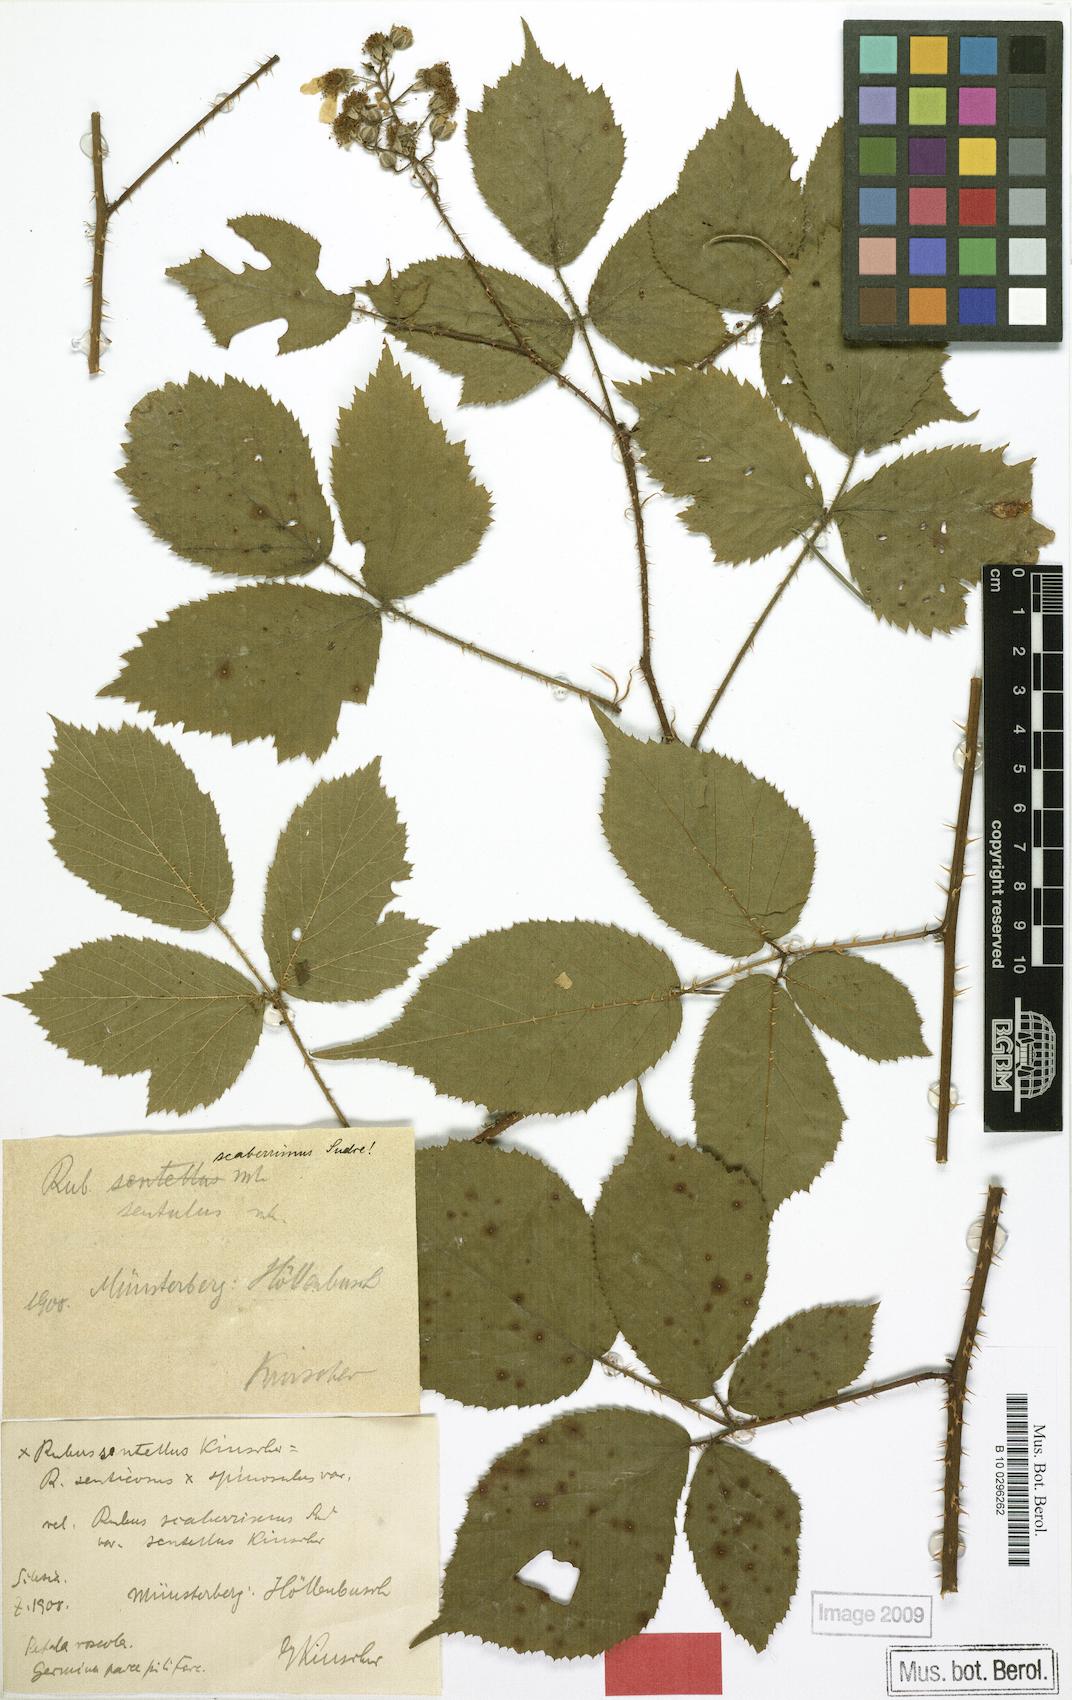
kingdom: Plantae
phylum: Tracheophyta
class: Magnoliopsida
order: Rosales
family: Rosaceae
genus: Rubus
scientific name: Rubus sentellus
